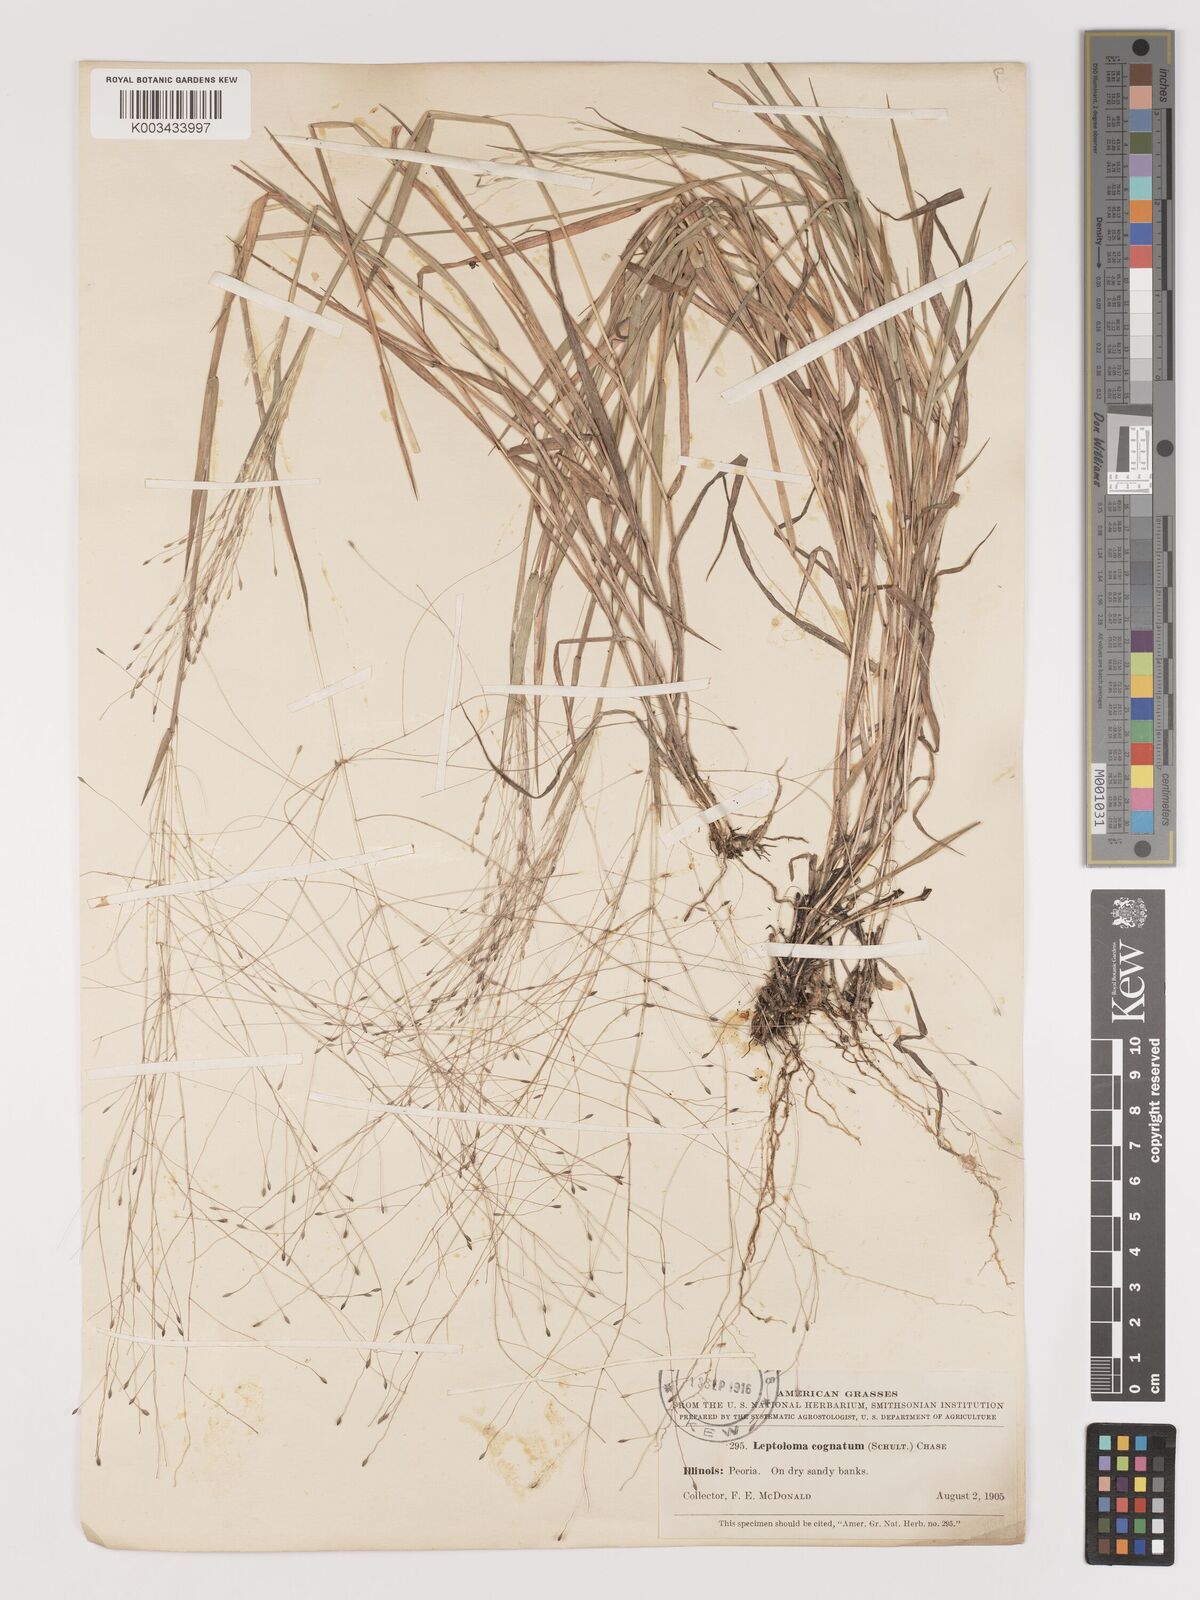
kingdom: Plantae
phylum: Tracheophyta
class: Liliopsida
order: Poales
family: Poaceae
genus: Digitaria
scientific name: Digitaria
